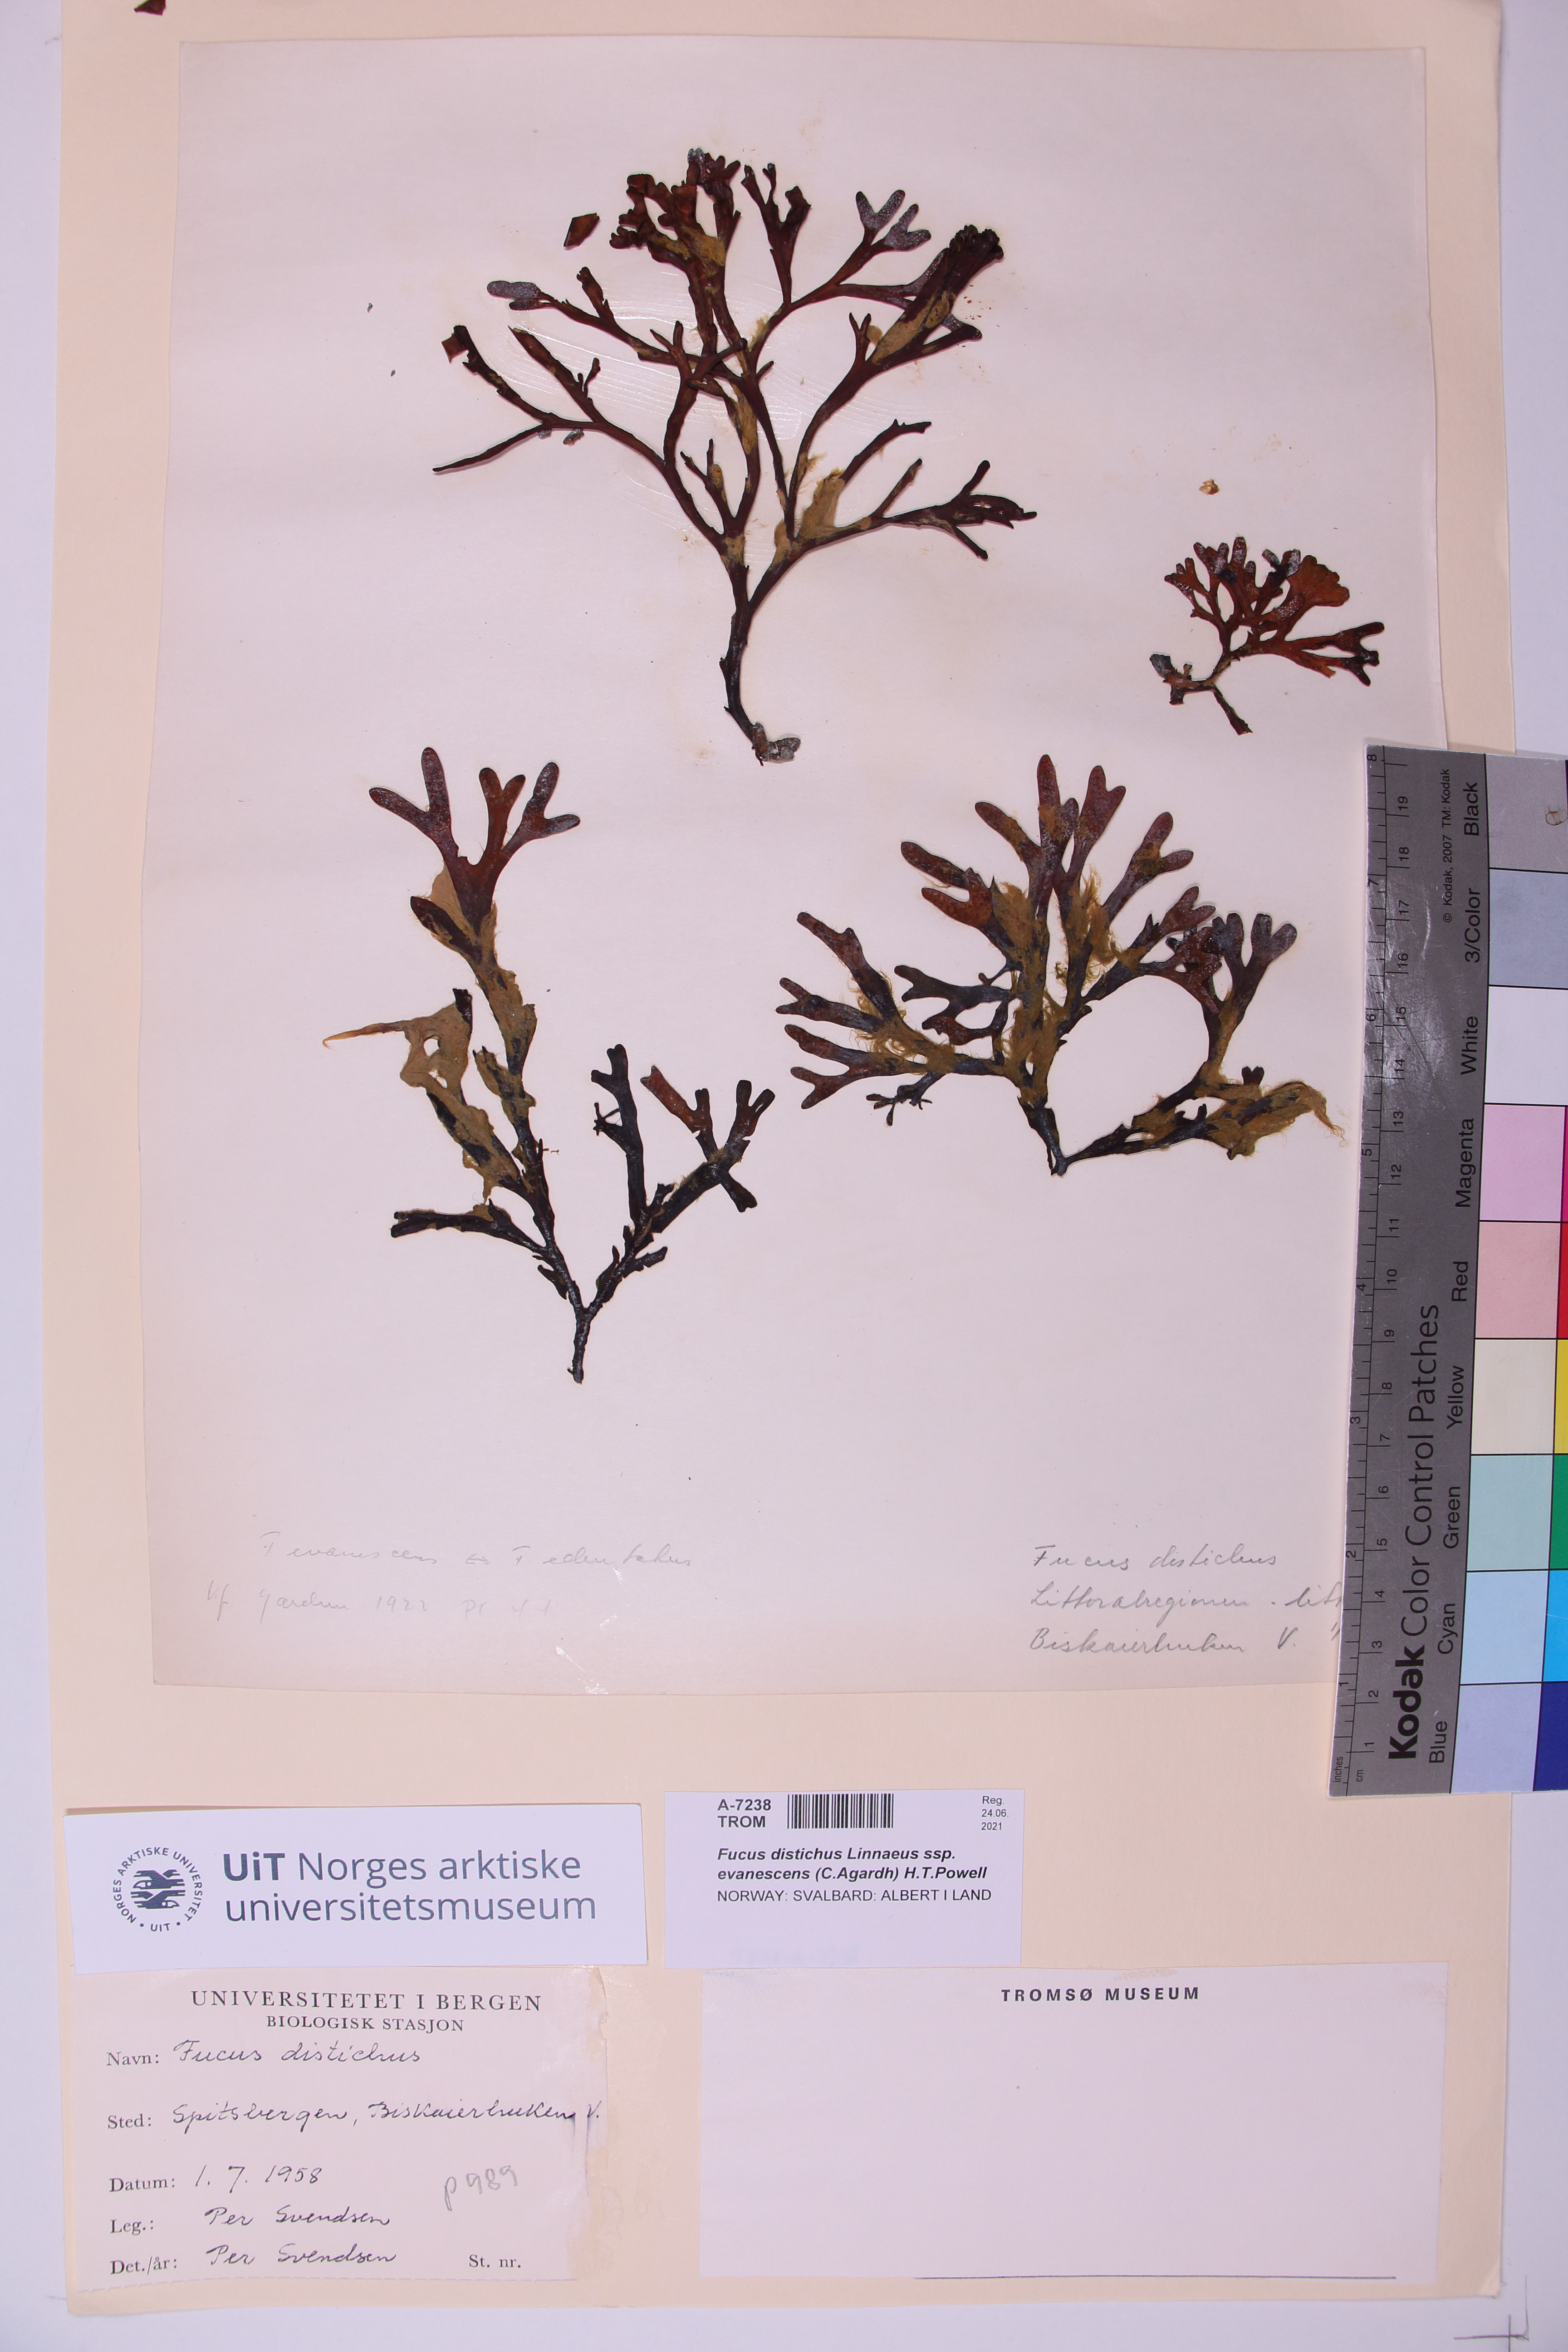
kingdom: Chromista
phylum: Ochrophyta
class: Phaeophyceae
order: Fucales
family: Fucaceae
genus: Fucus
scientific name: Fucus evanescens
